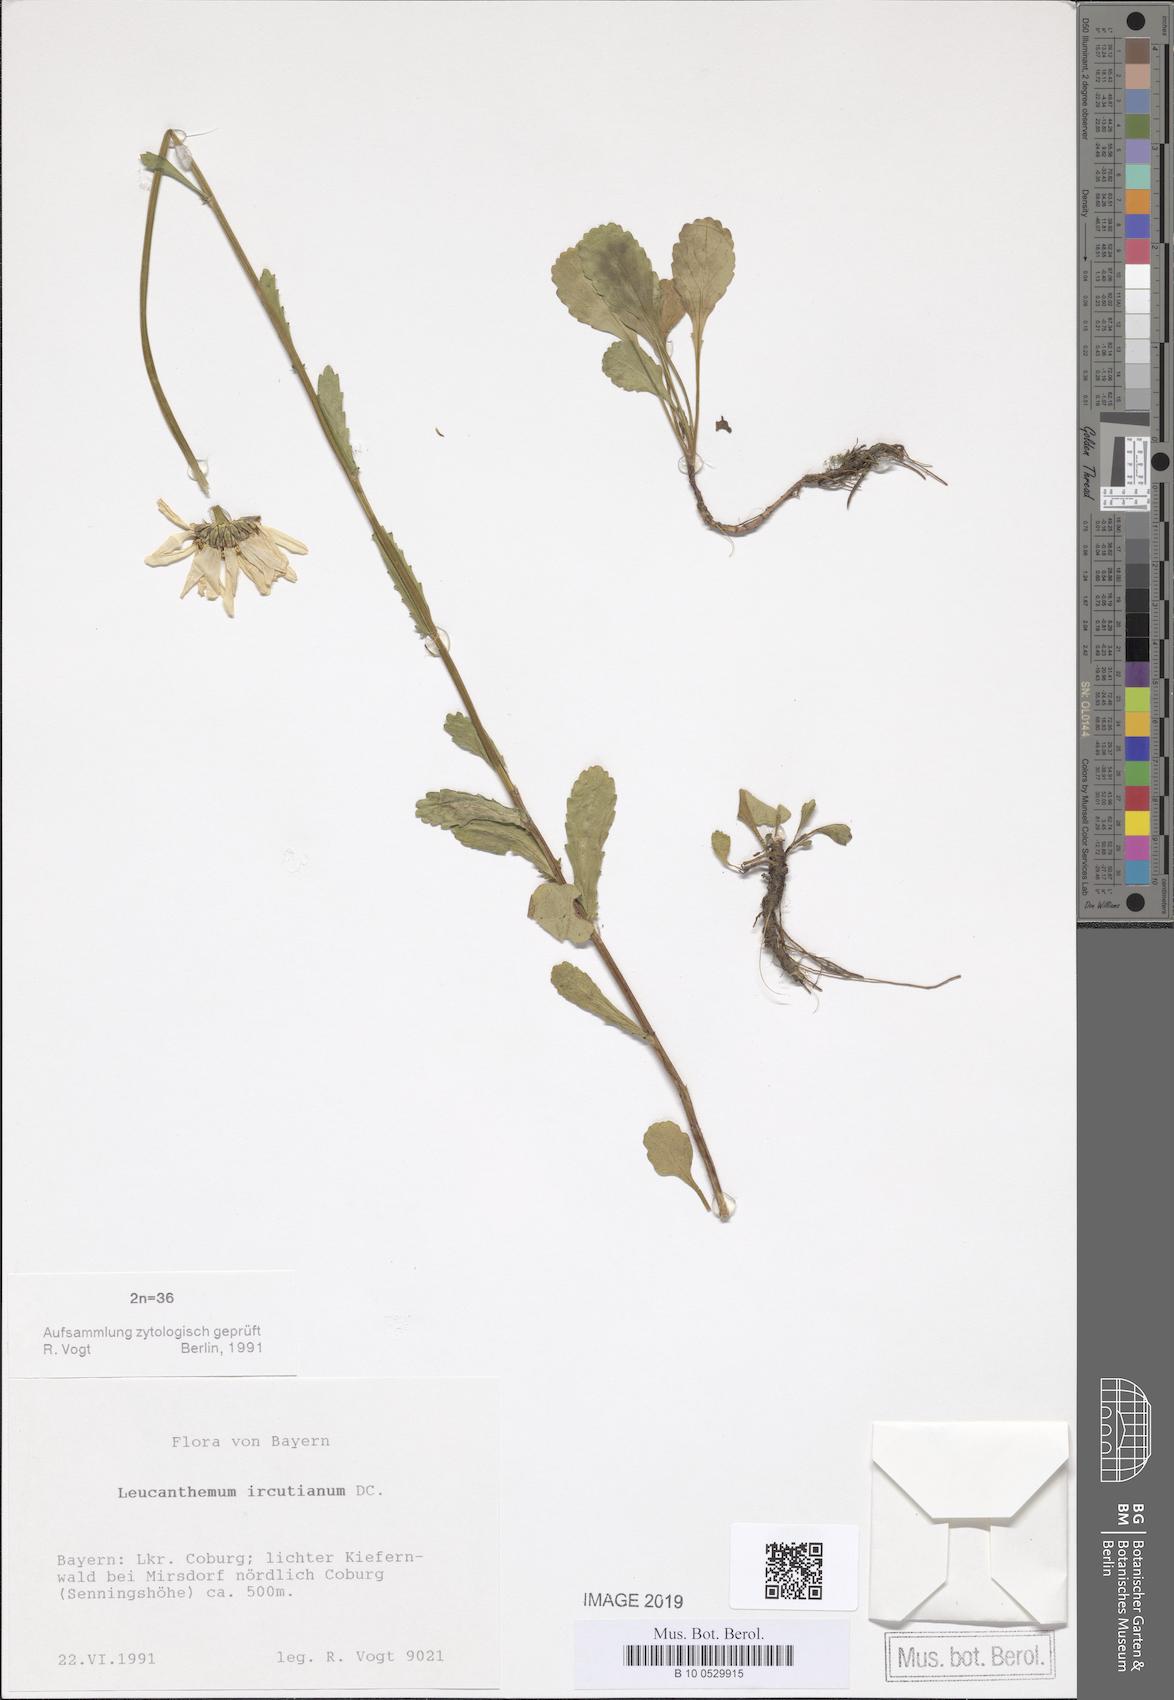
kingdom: Plantae
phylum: Tracheophyta
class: Magnoliopsida
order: Asterales
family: Asteraceae
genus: Leucanthemum
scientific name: Leucanthemum ircutianum
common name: Daisy
